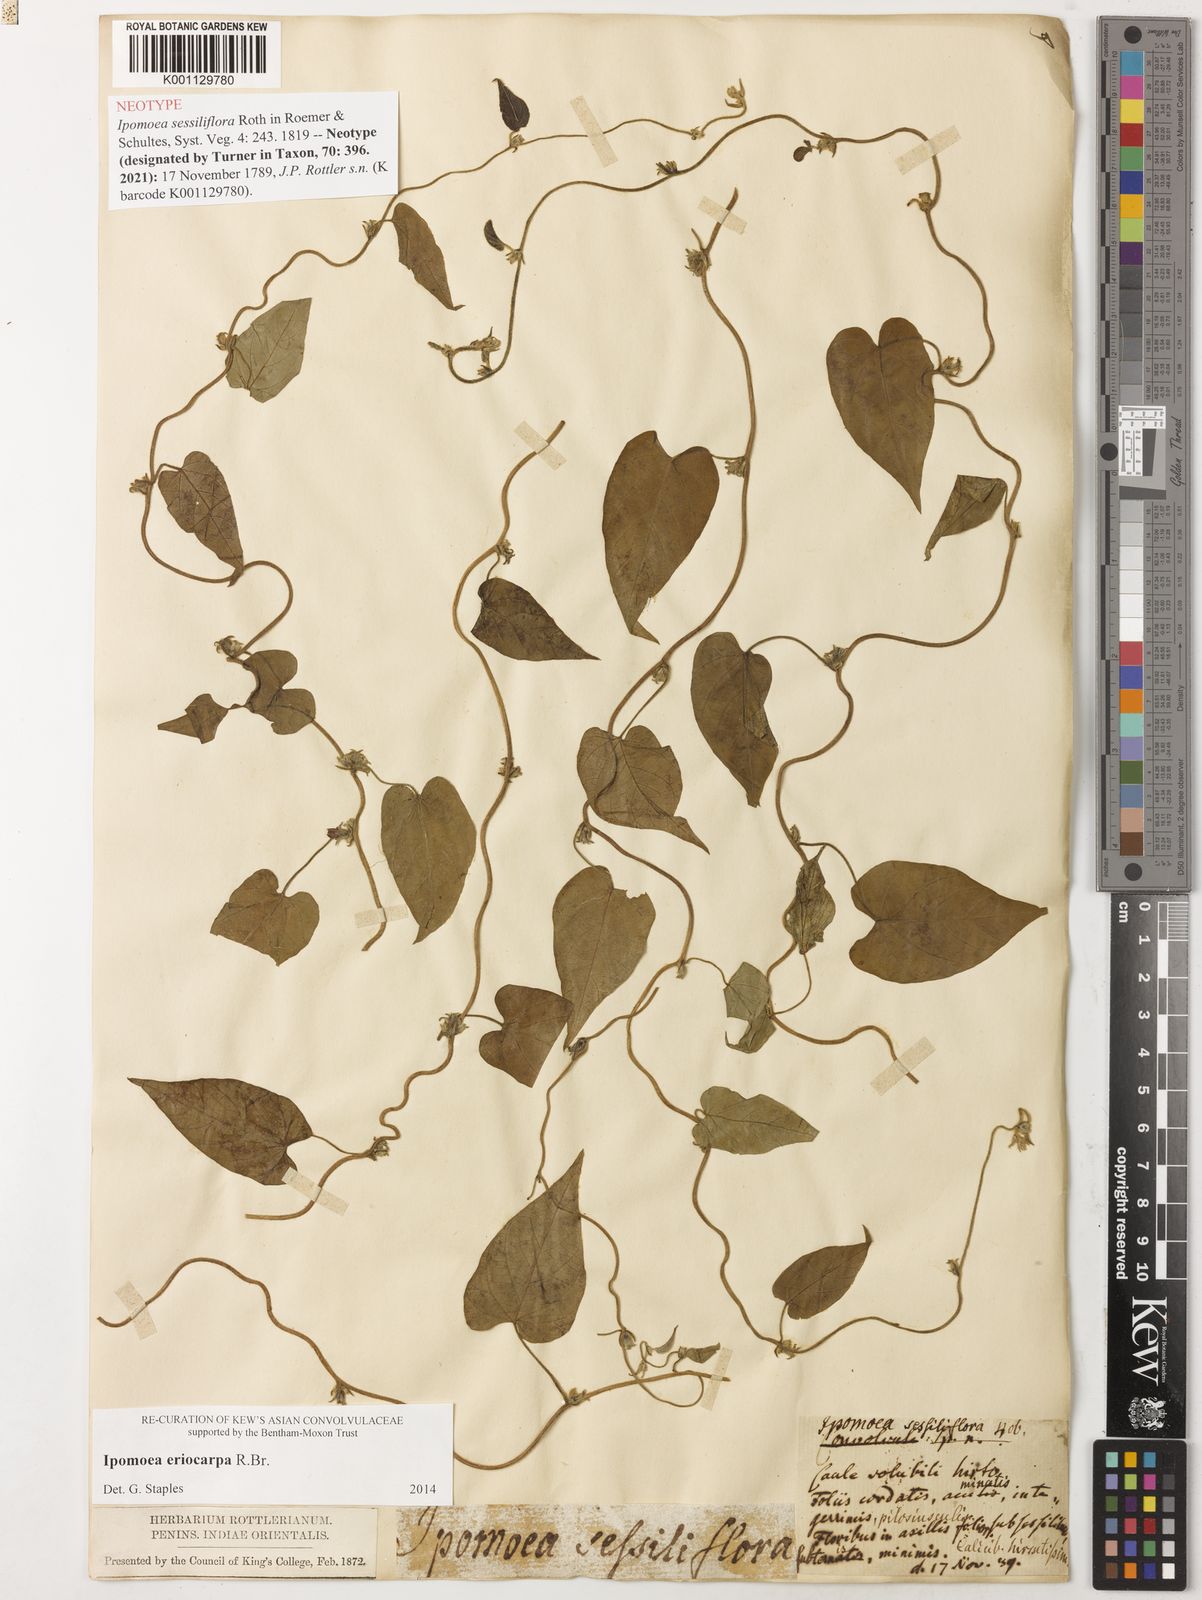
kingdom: Plantae
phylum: Tracheophyta
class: Magnoliopsida
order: Solanales
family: Convolvulaceae
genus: Ipomoea
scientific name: Ipomoea eriocarpa
